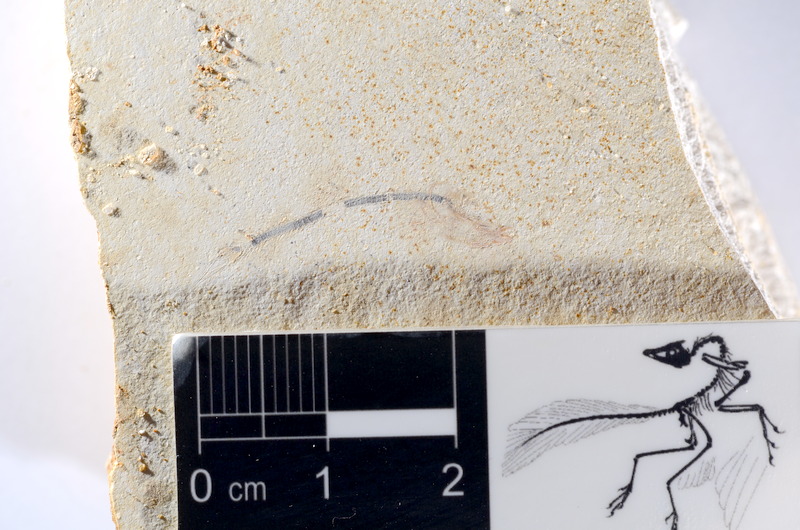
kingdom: Animalia
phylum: Chordata
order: Salmoniformes
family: Orthogonikleithridae
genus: Orthogonikleithrus
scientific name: Orthogonikleithrus hoelli
